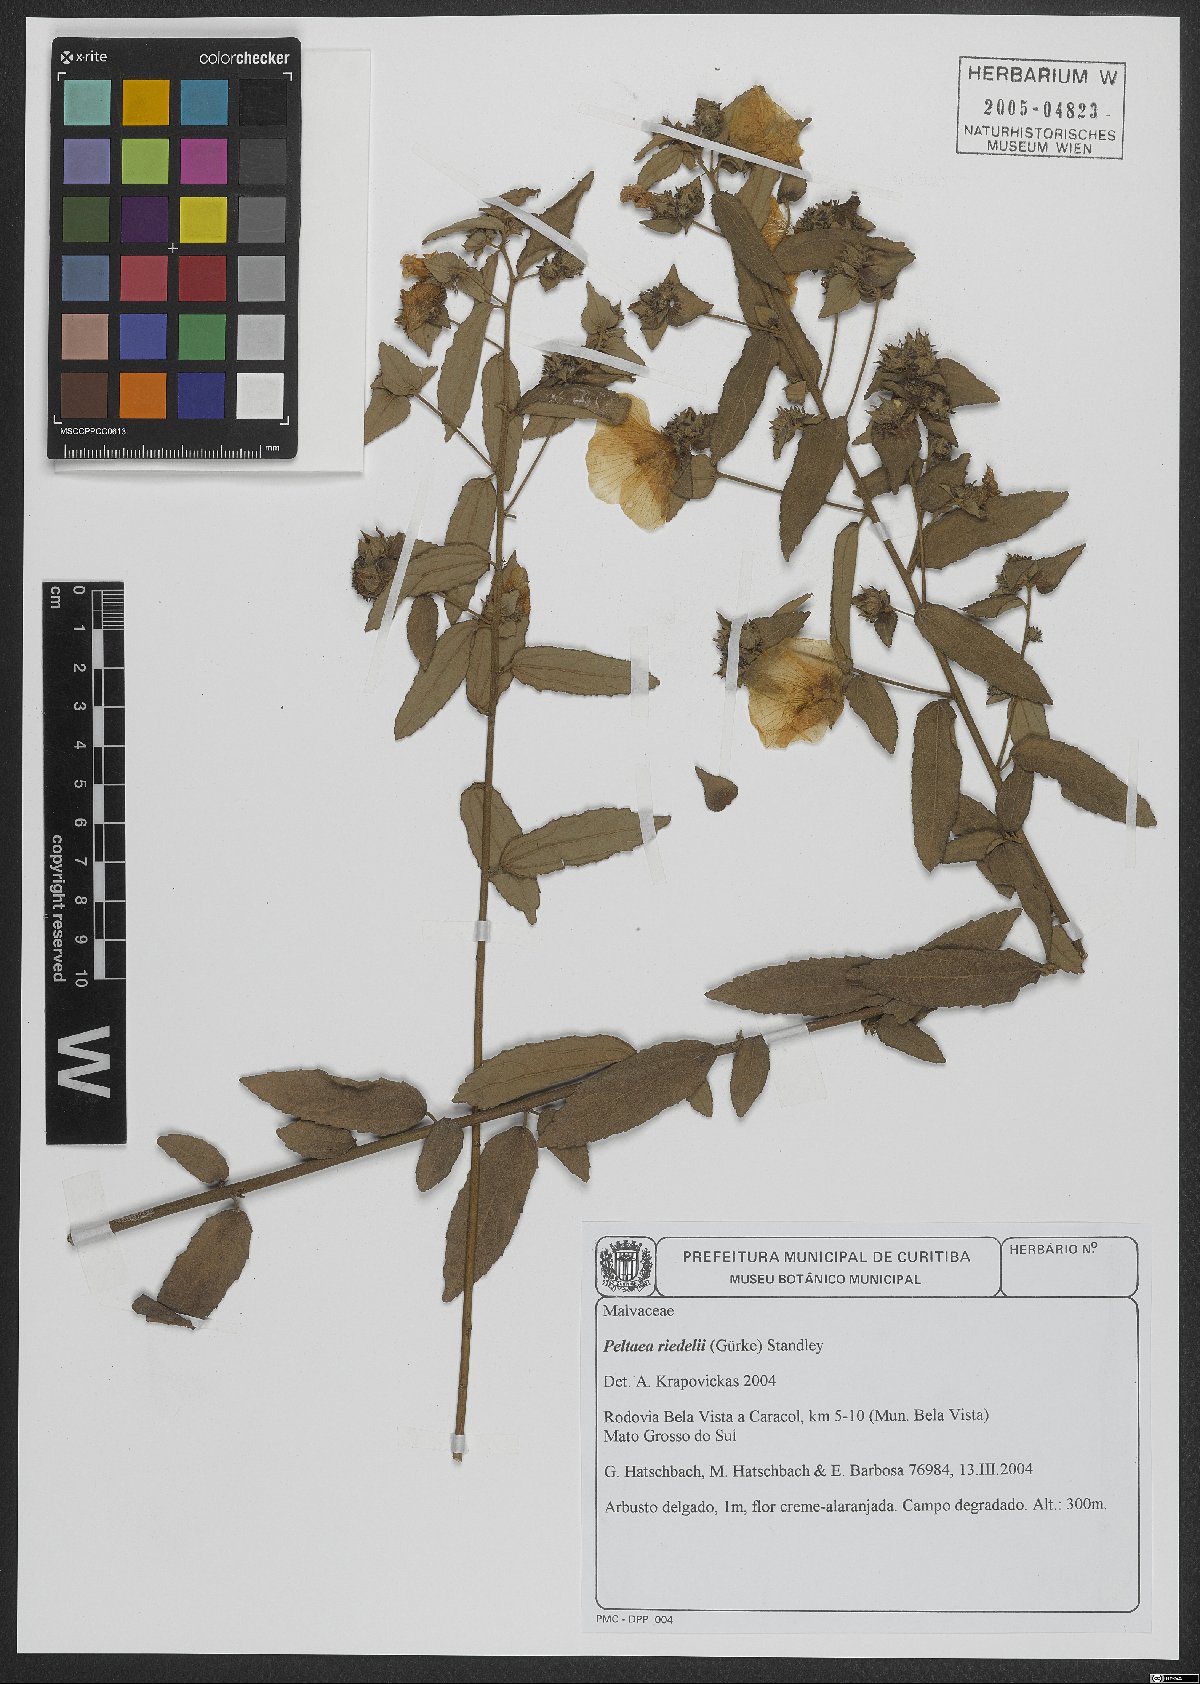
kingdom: Plantae
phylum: Tracheophyta
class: Magnoliopsida
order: Malvales
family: Malvaceae
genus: Peltaea
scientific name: Peltaea riedelii
